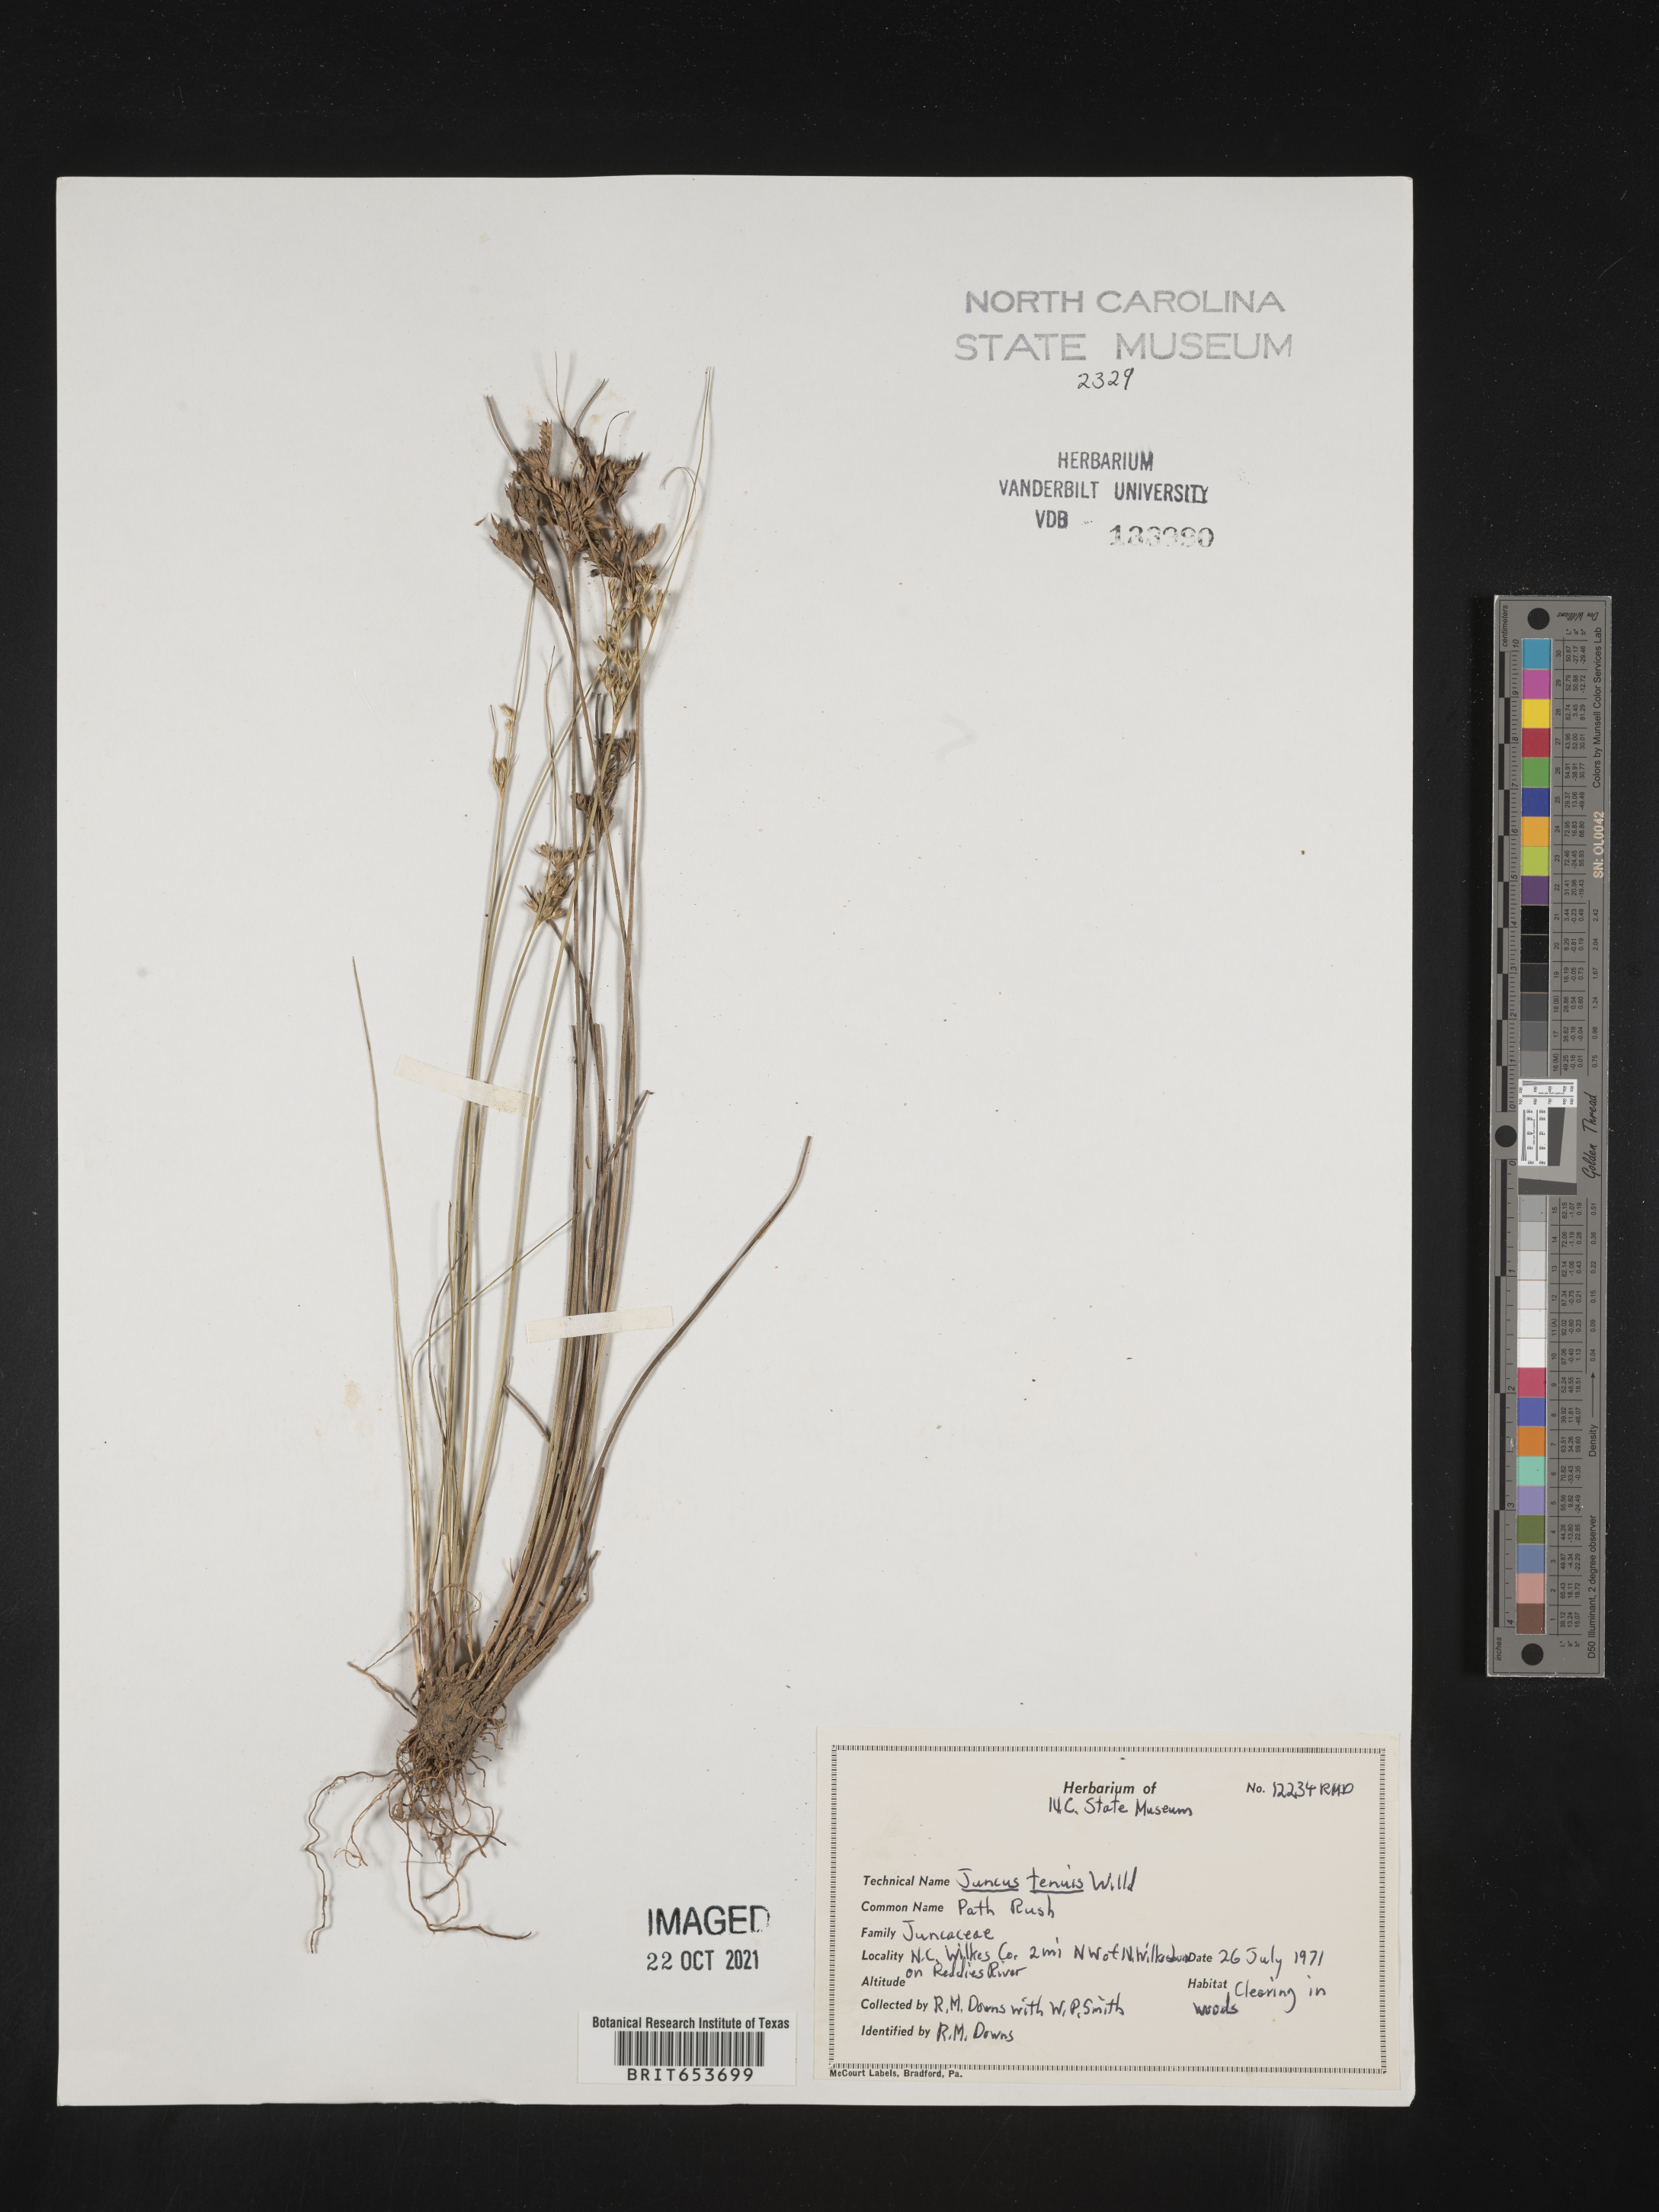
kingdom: Plantae
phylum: Tracheophyta
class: Liliopsida
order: Poales
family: Juncaceae
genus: Juncus
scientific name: Juncus tenuis
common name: Slender rush
